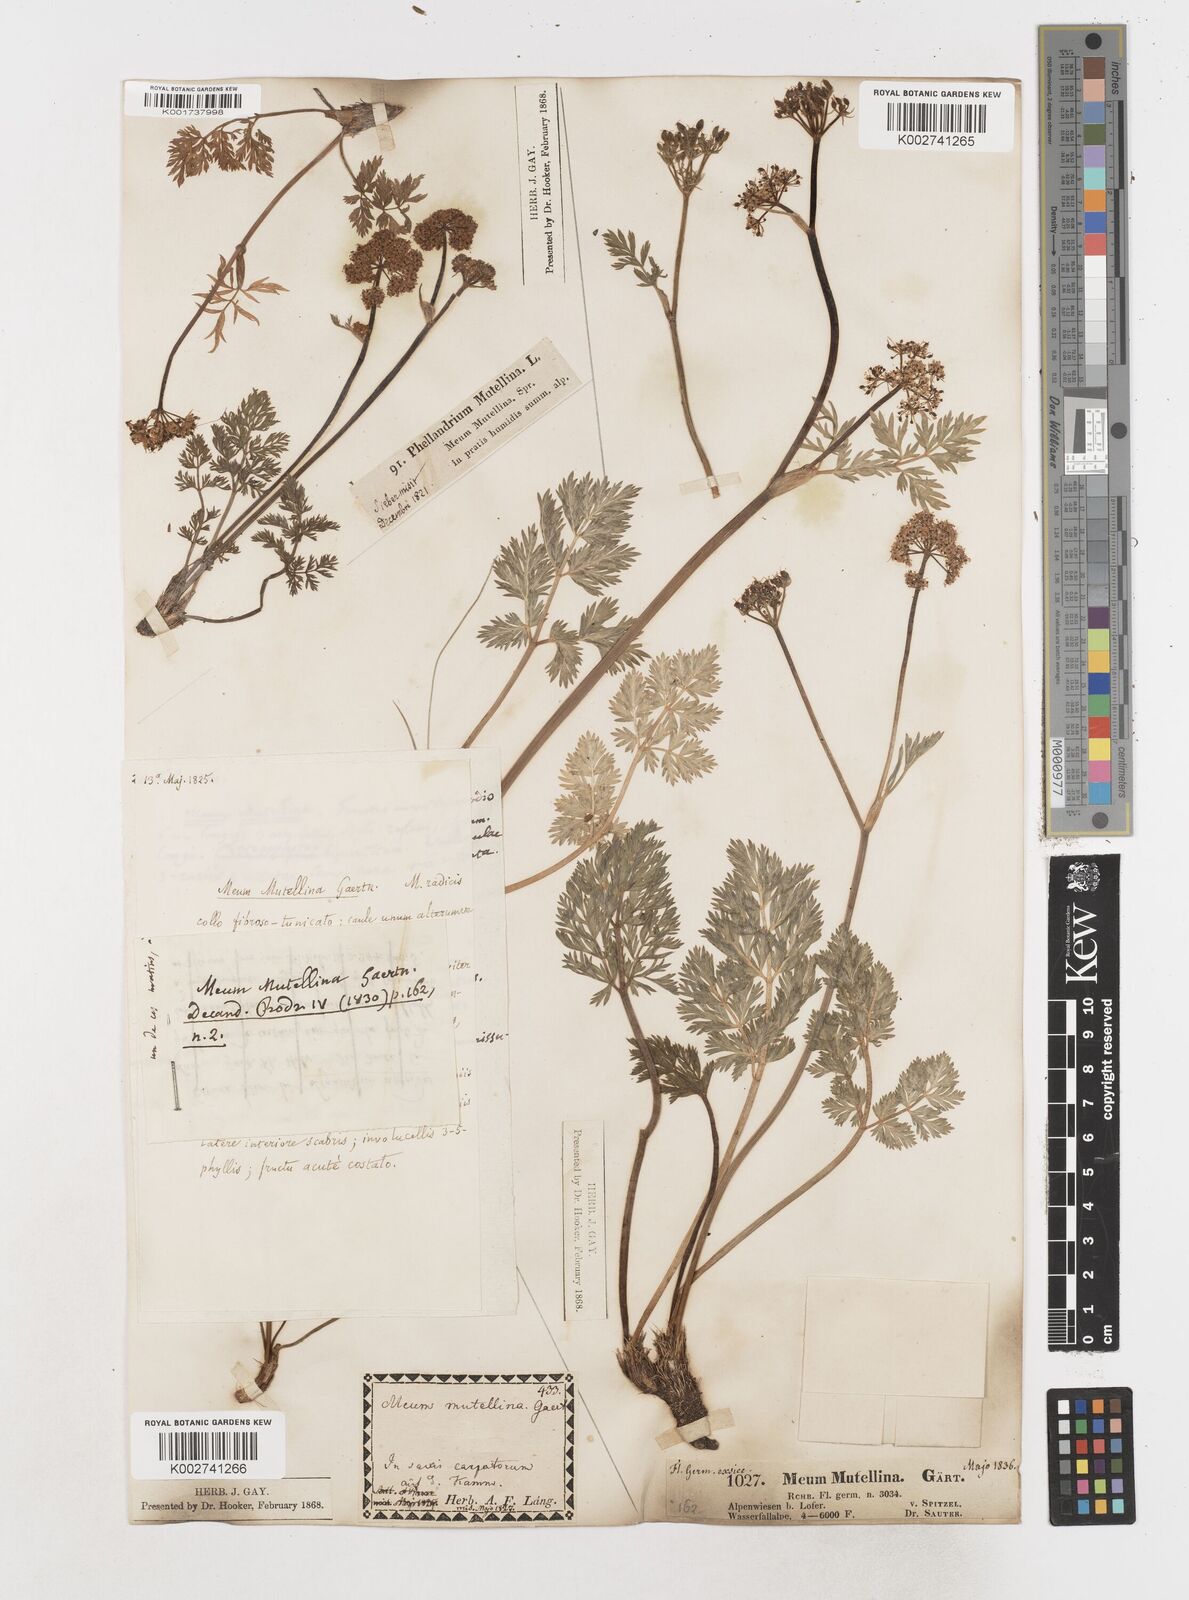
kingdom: Plantae
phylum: Tracheophyta
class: Magnoliopsida
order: Apiales
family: Apiaceae
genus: Mutellina
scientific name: Mutellina adonidifolia
